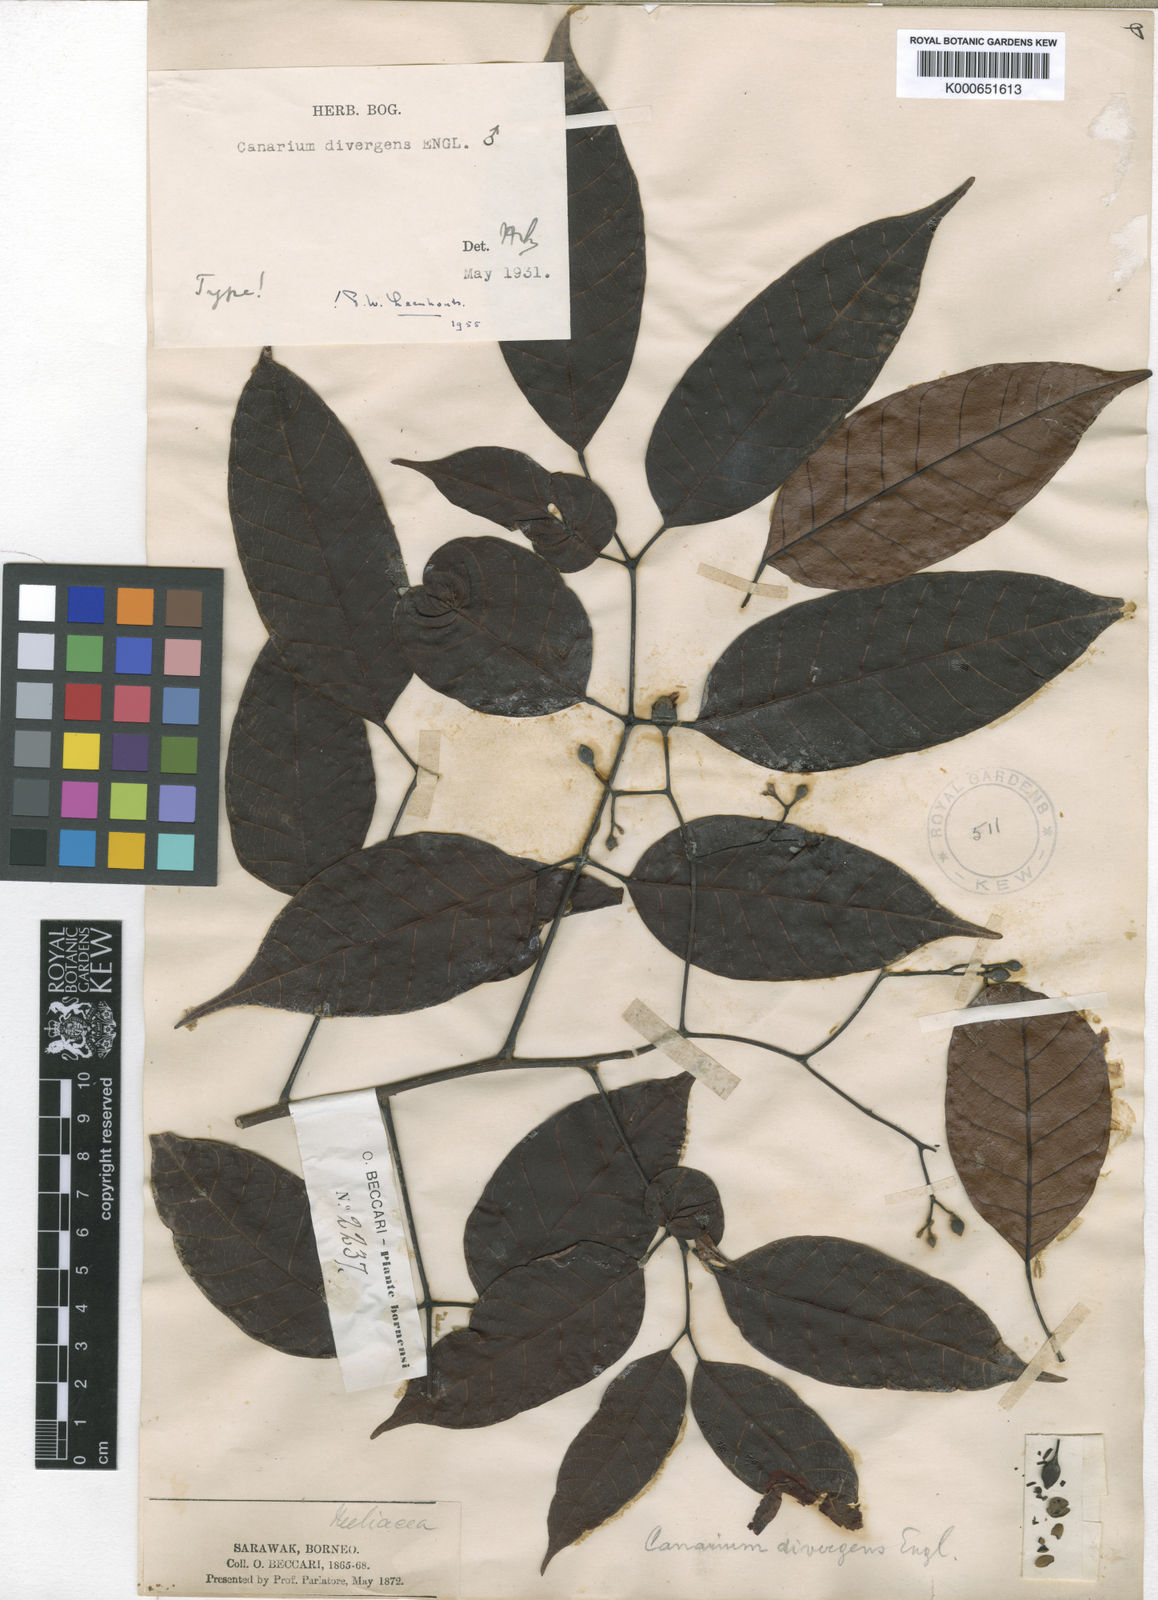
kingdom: Plantae
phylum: Tracheophyta
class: Magnoliopsida
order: Sapindales
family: Burseraceae
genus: Canarium
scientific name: Canarium divergens
